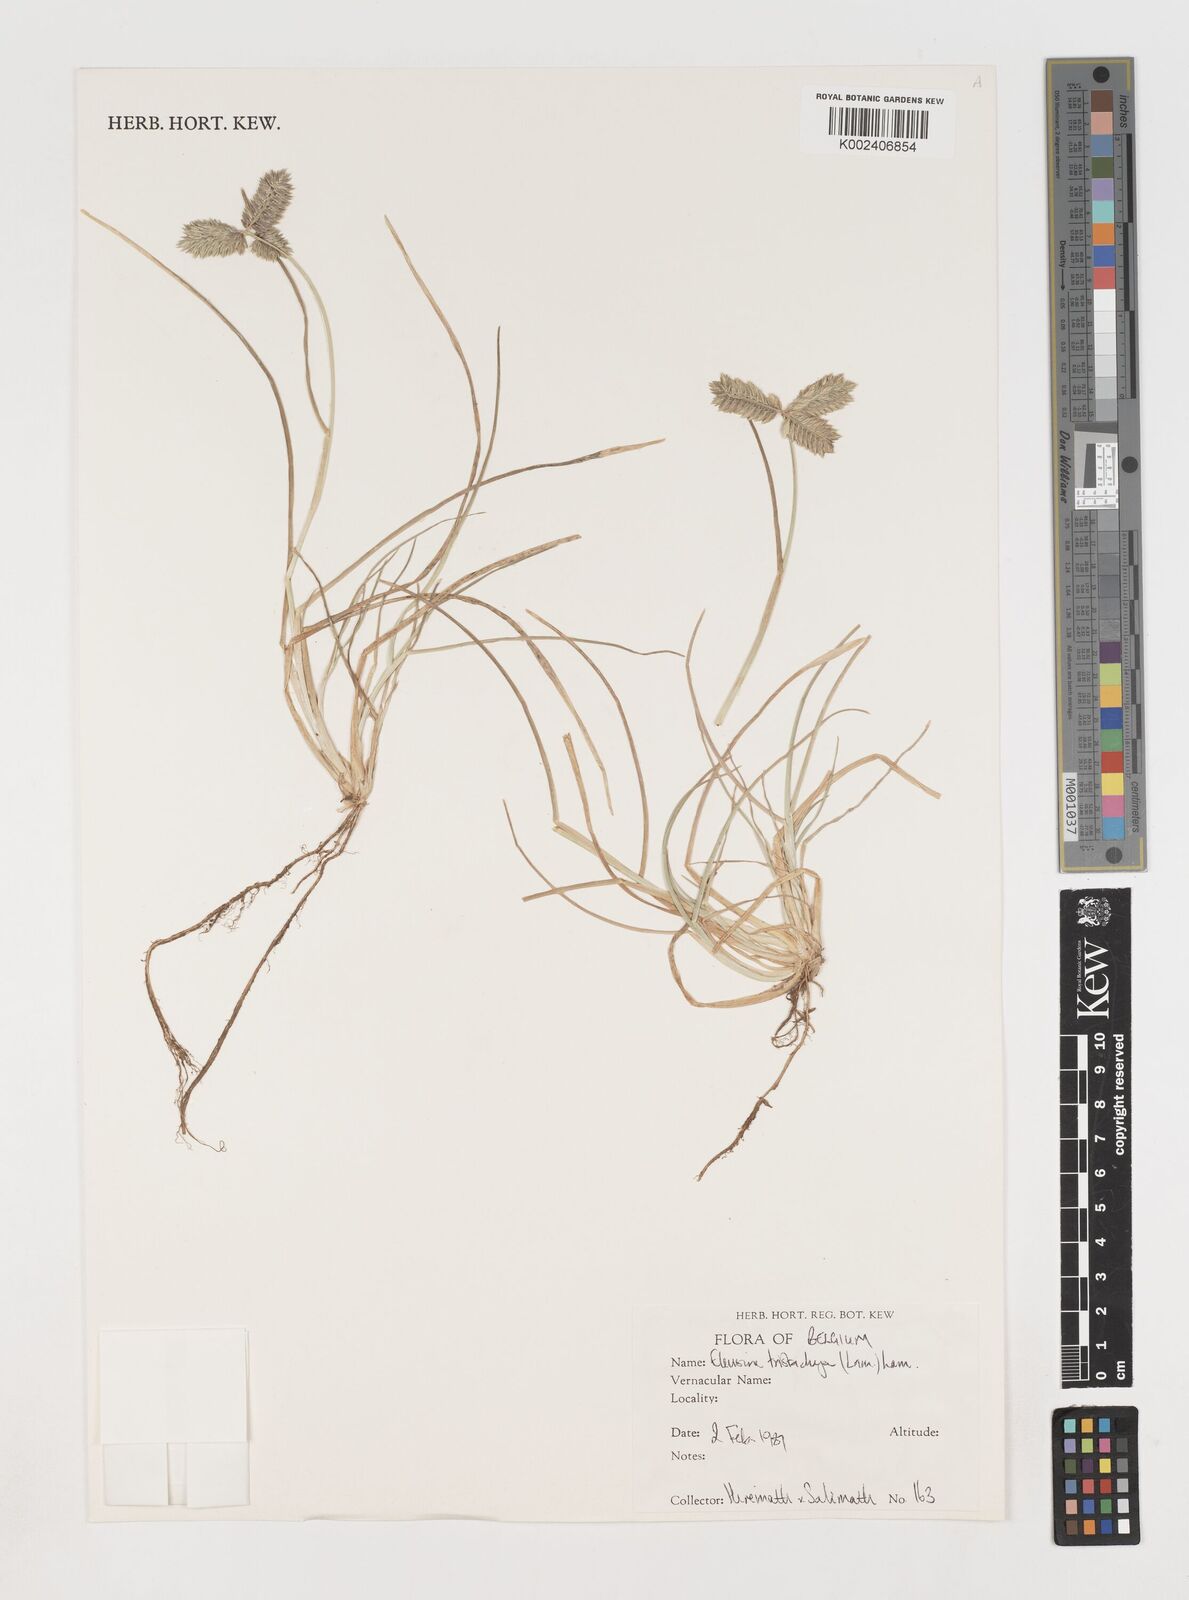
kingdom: Plantae
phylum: Tracheophyta
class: Liliopsida
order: Poales
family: Poaceae
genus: Eleusine
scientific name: Eleusine tristachya
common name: American yard-grass
